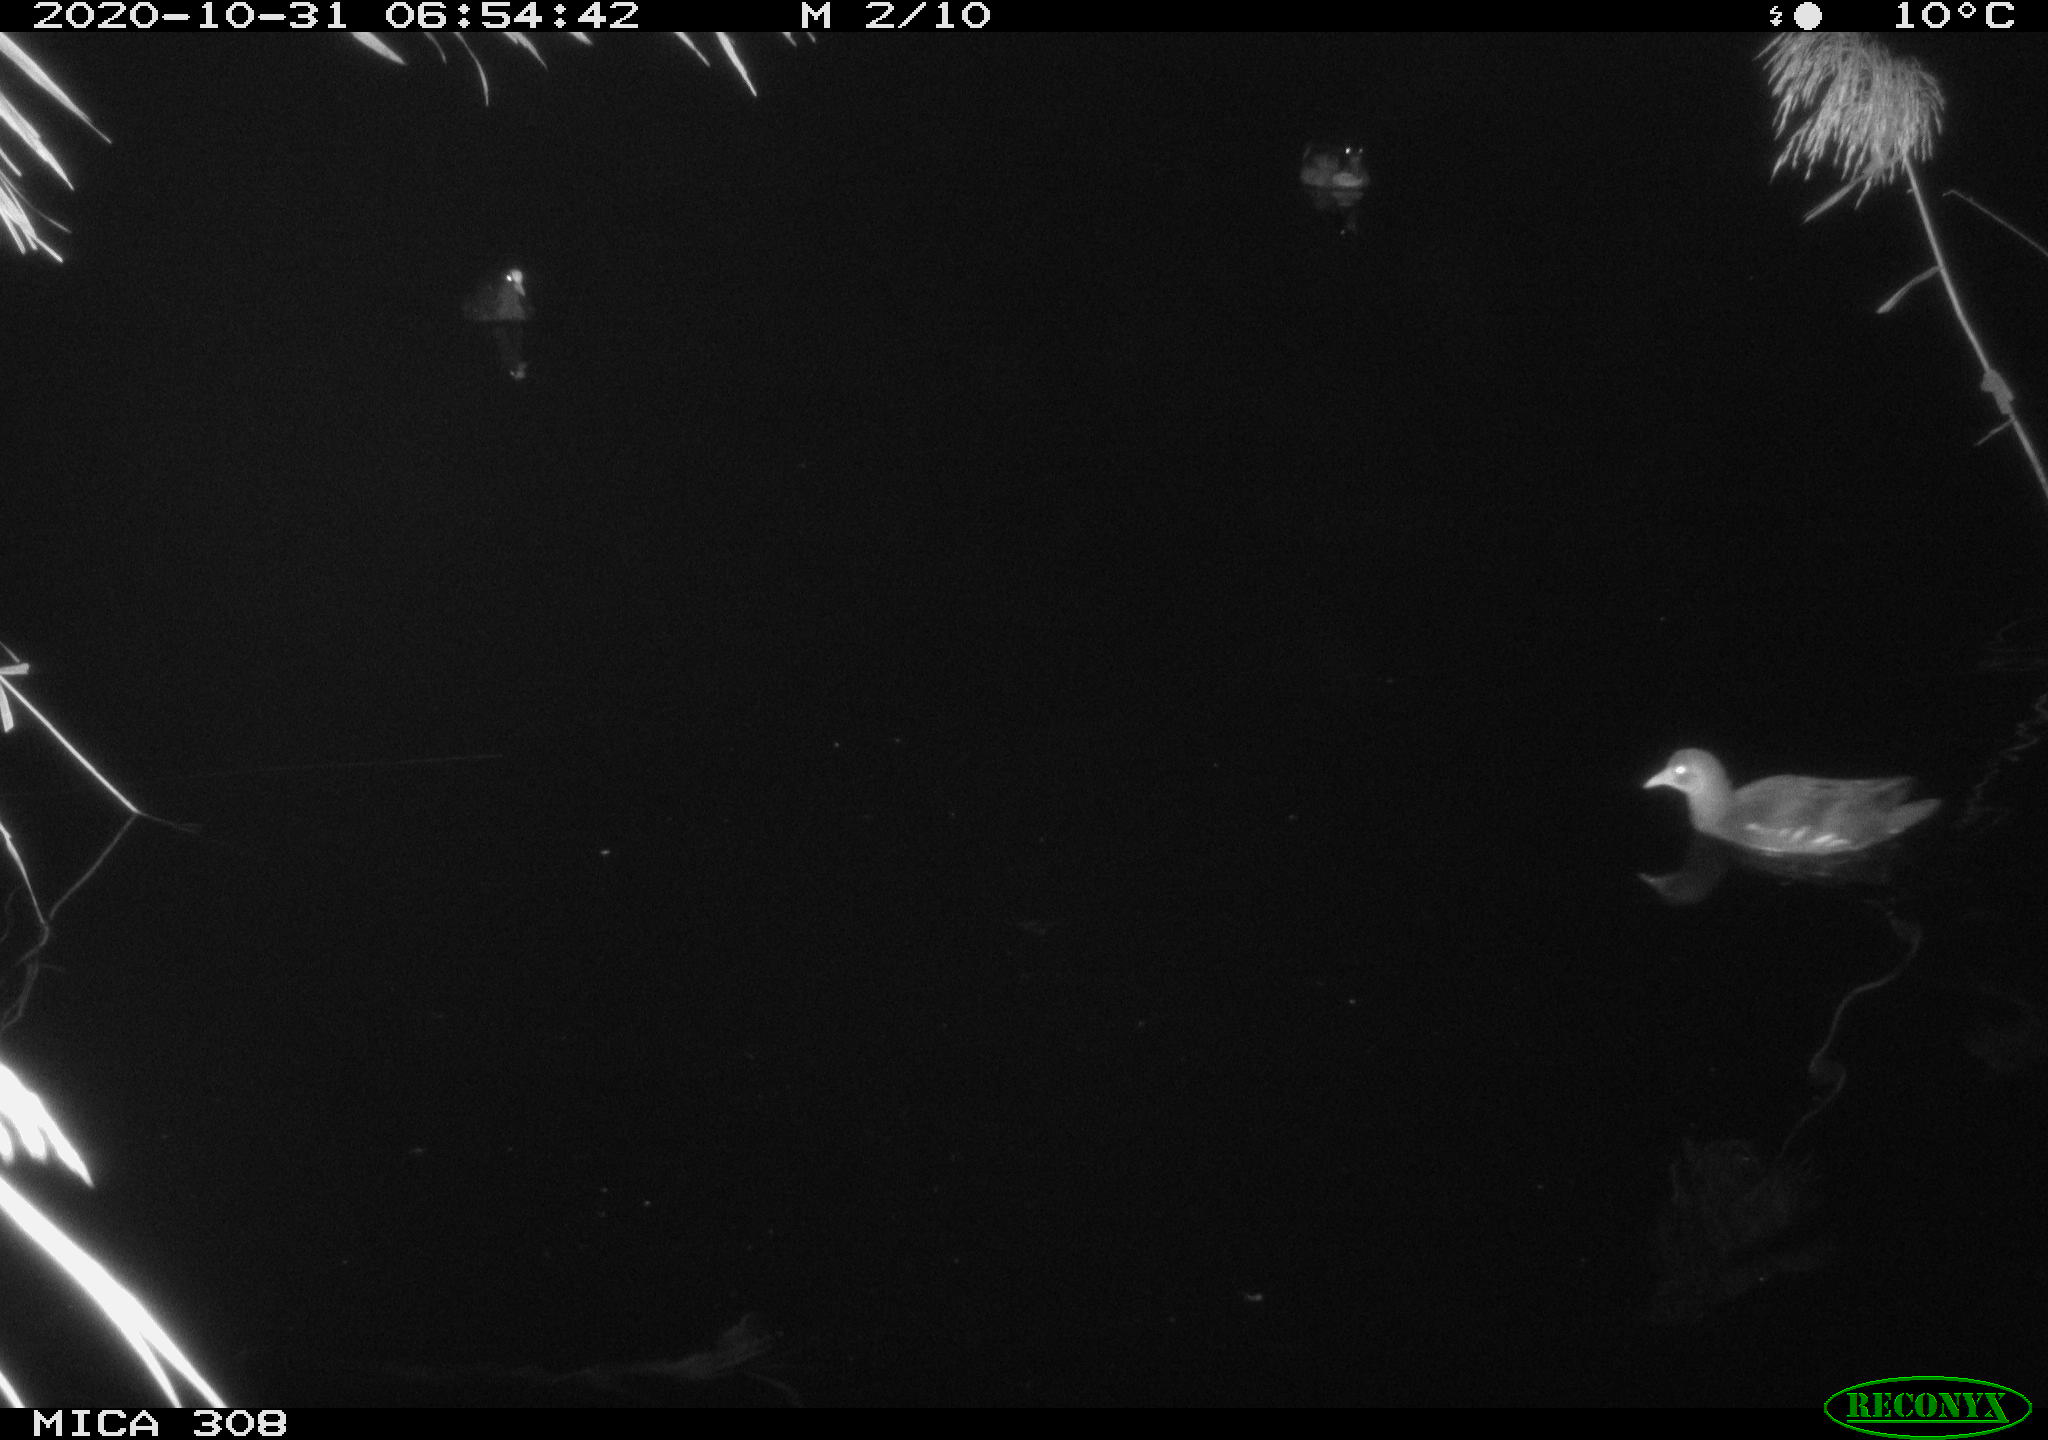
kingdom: Animalia
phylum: Chordata
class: Aves
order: Gruiformes
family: Rallidae
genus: Gallinula
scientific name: Gallinula chloropus
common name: Common moorhen
